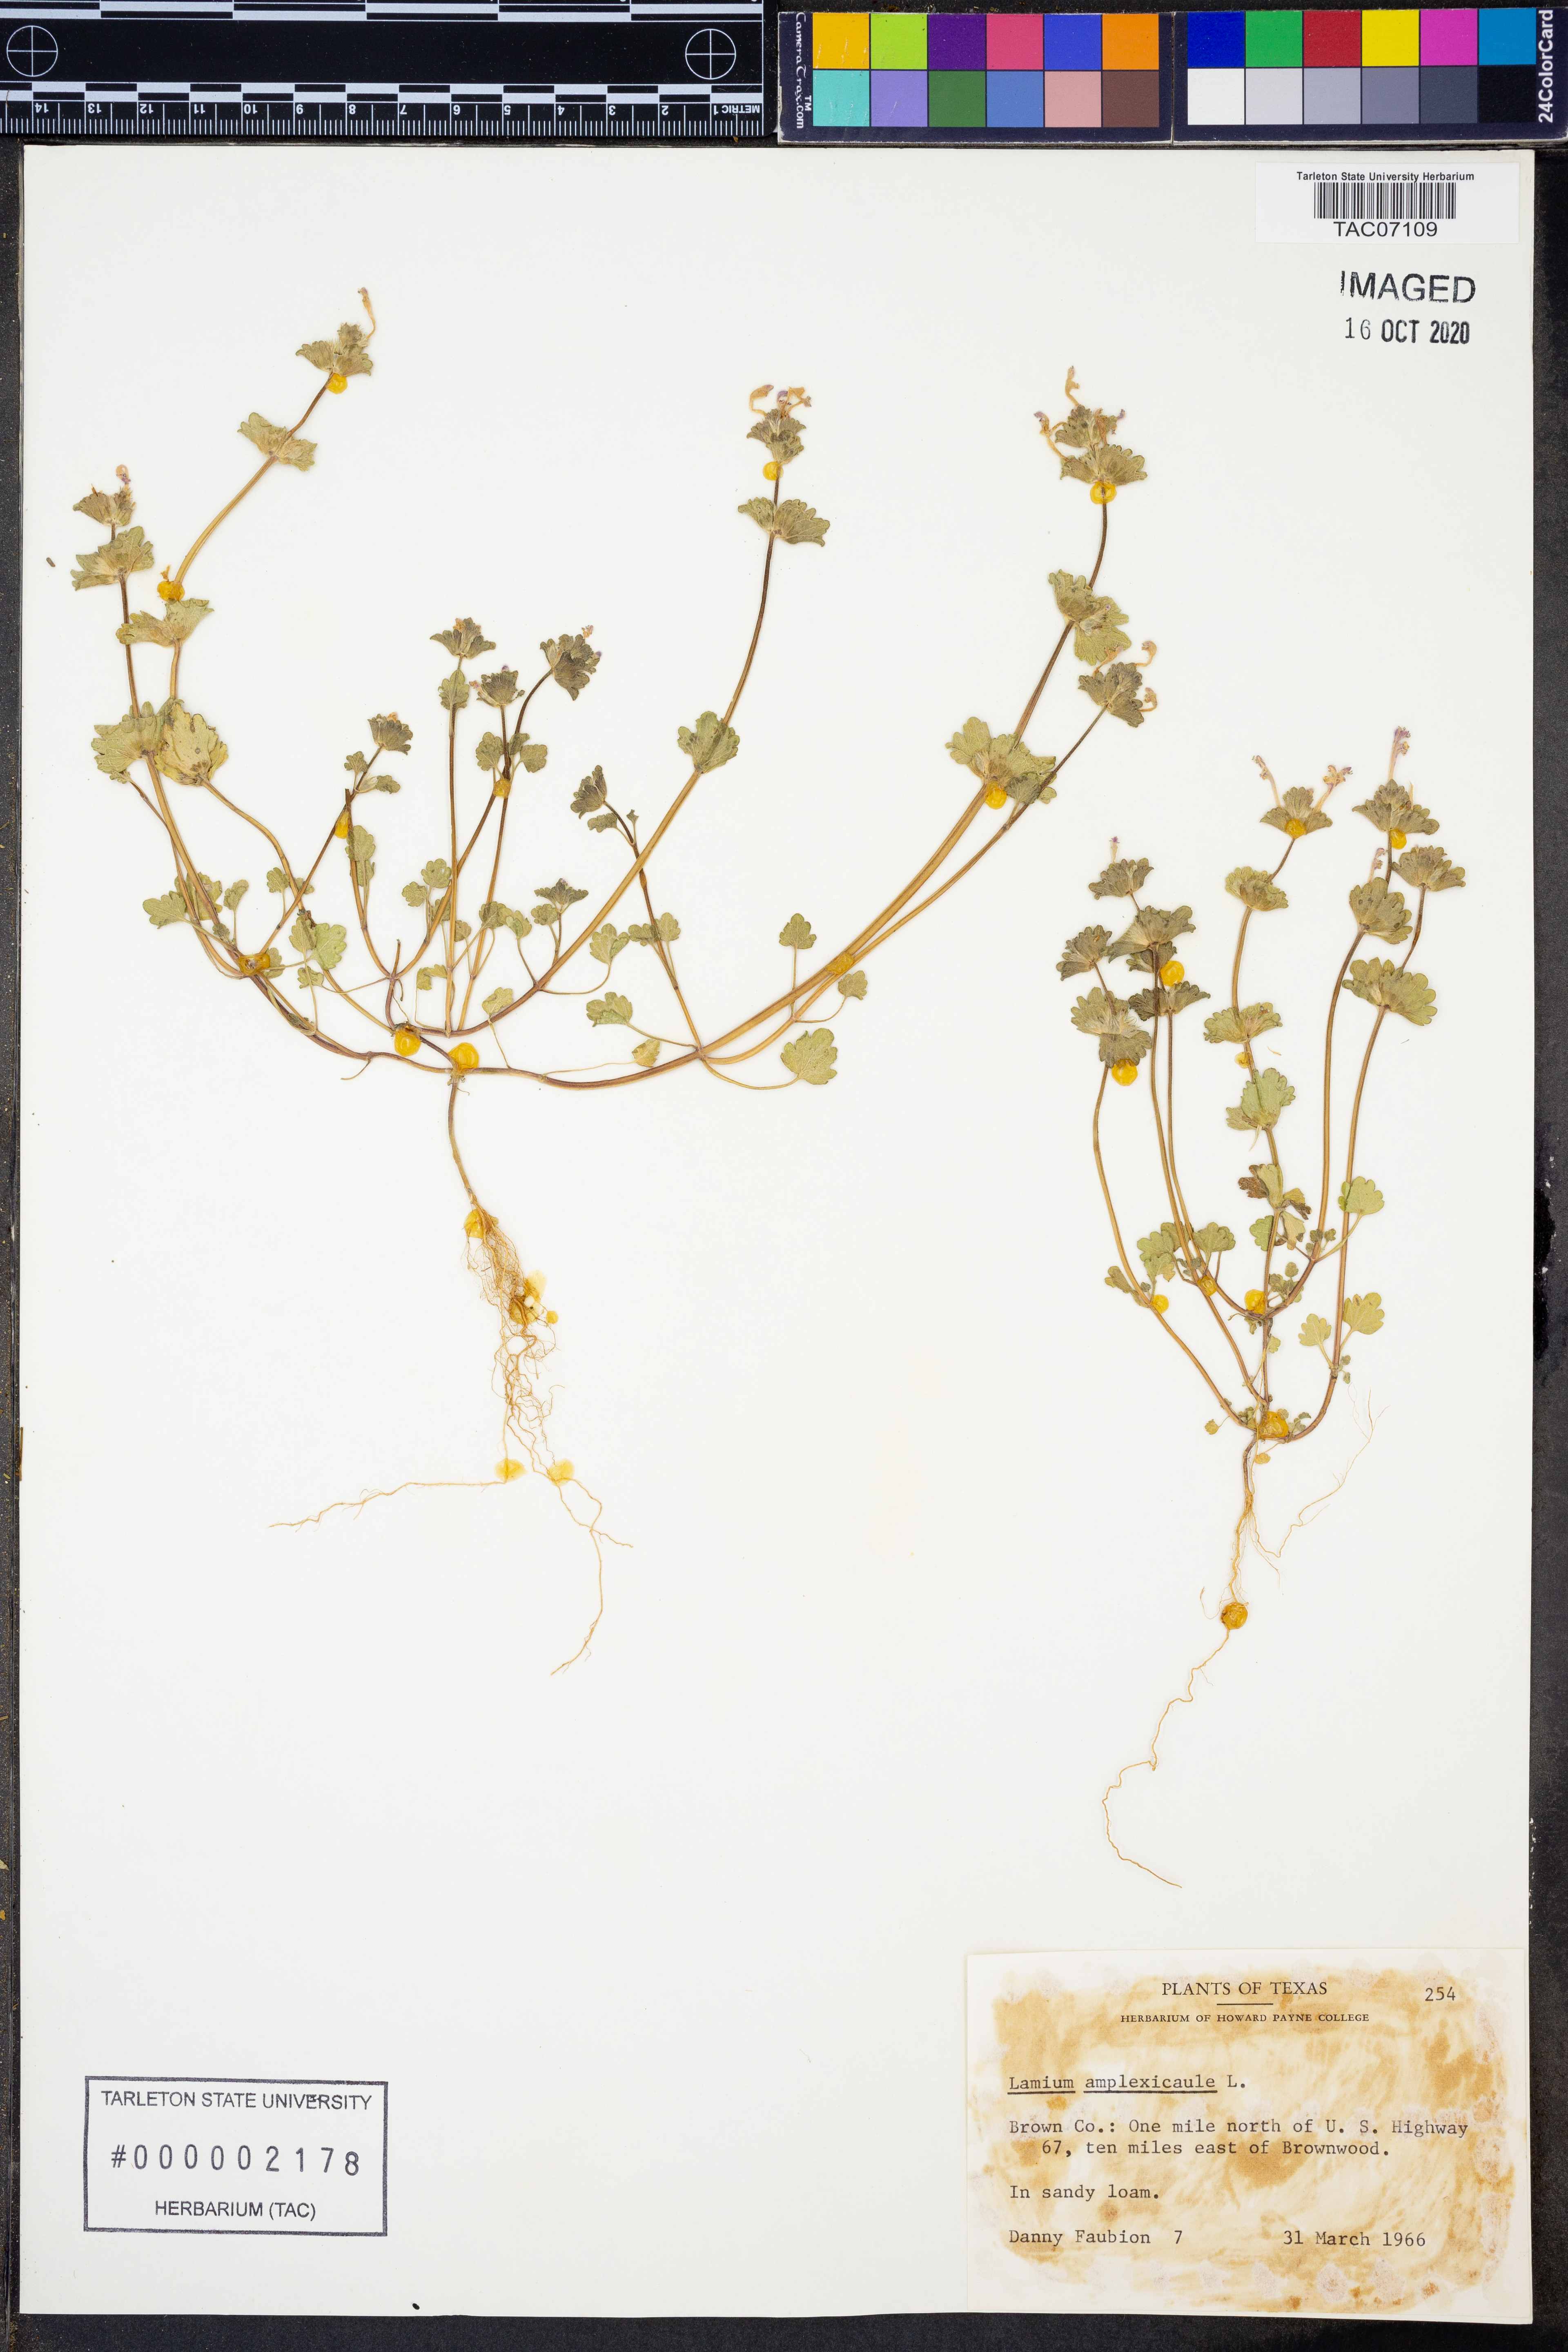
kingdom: Plantae
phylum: Tracheophyta
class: Magnoliopsida
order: Lamiales
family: Lamiaceae
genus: Lamium
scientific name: Lamium amplexicaule
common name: Henbit dead-nettle
